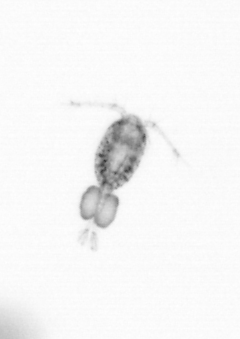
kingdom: Animalia
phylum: Arthropoda
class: Copepoda
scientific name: Copepoda
